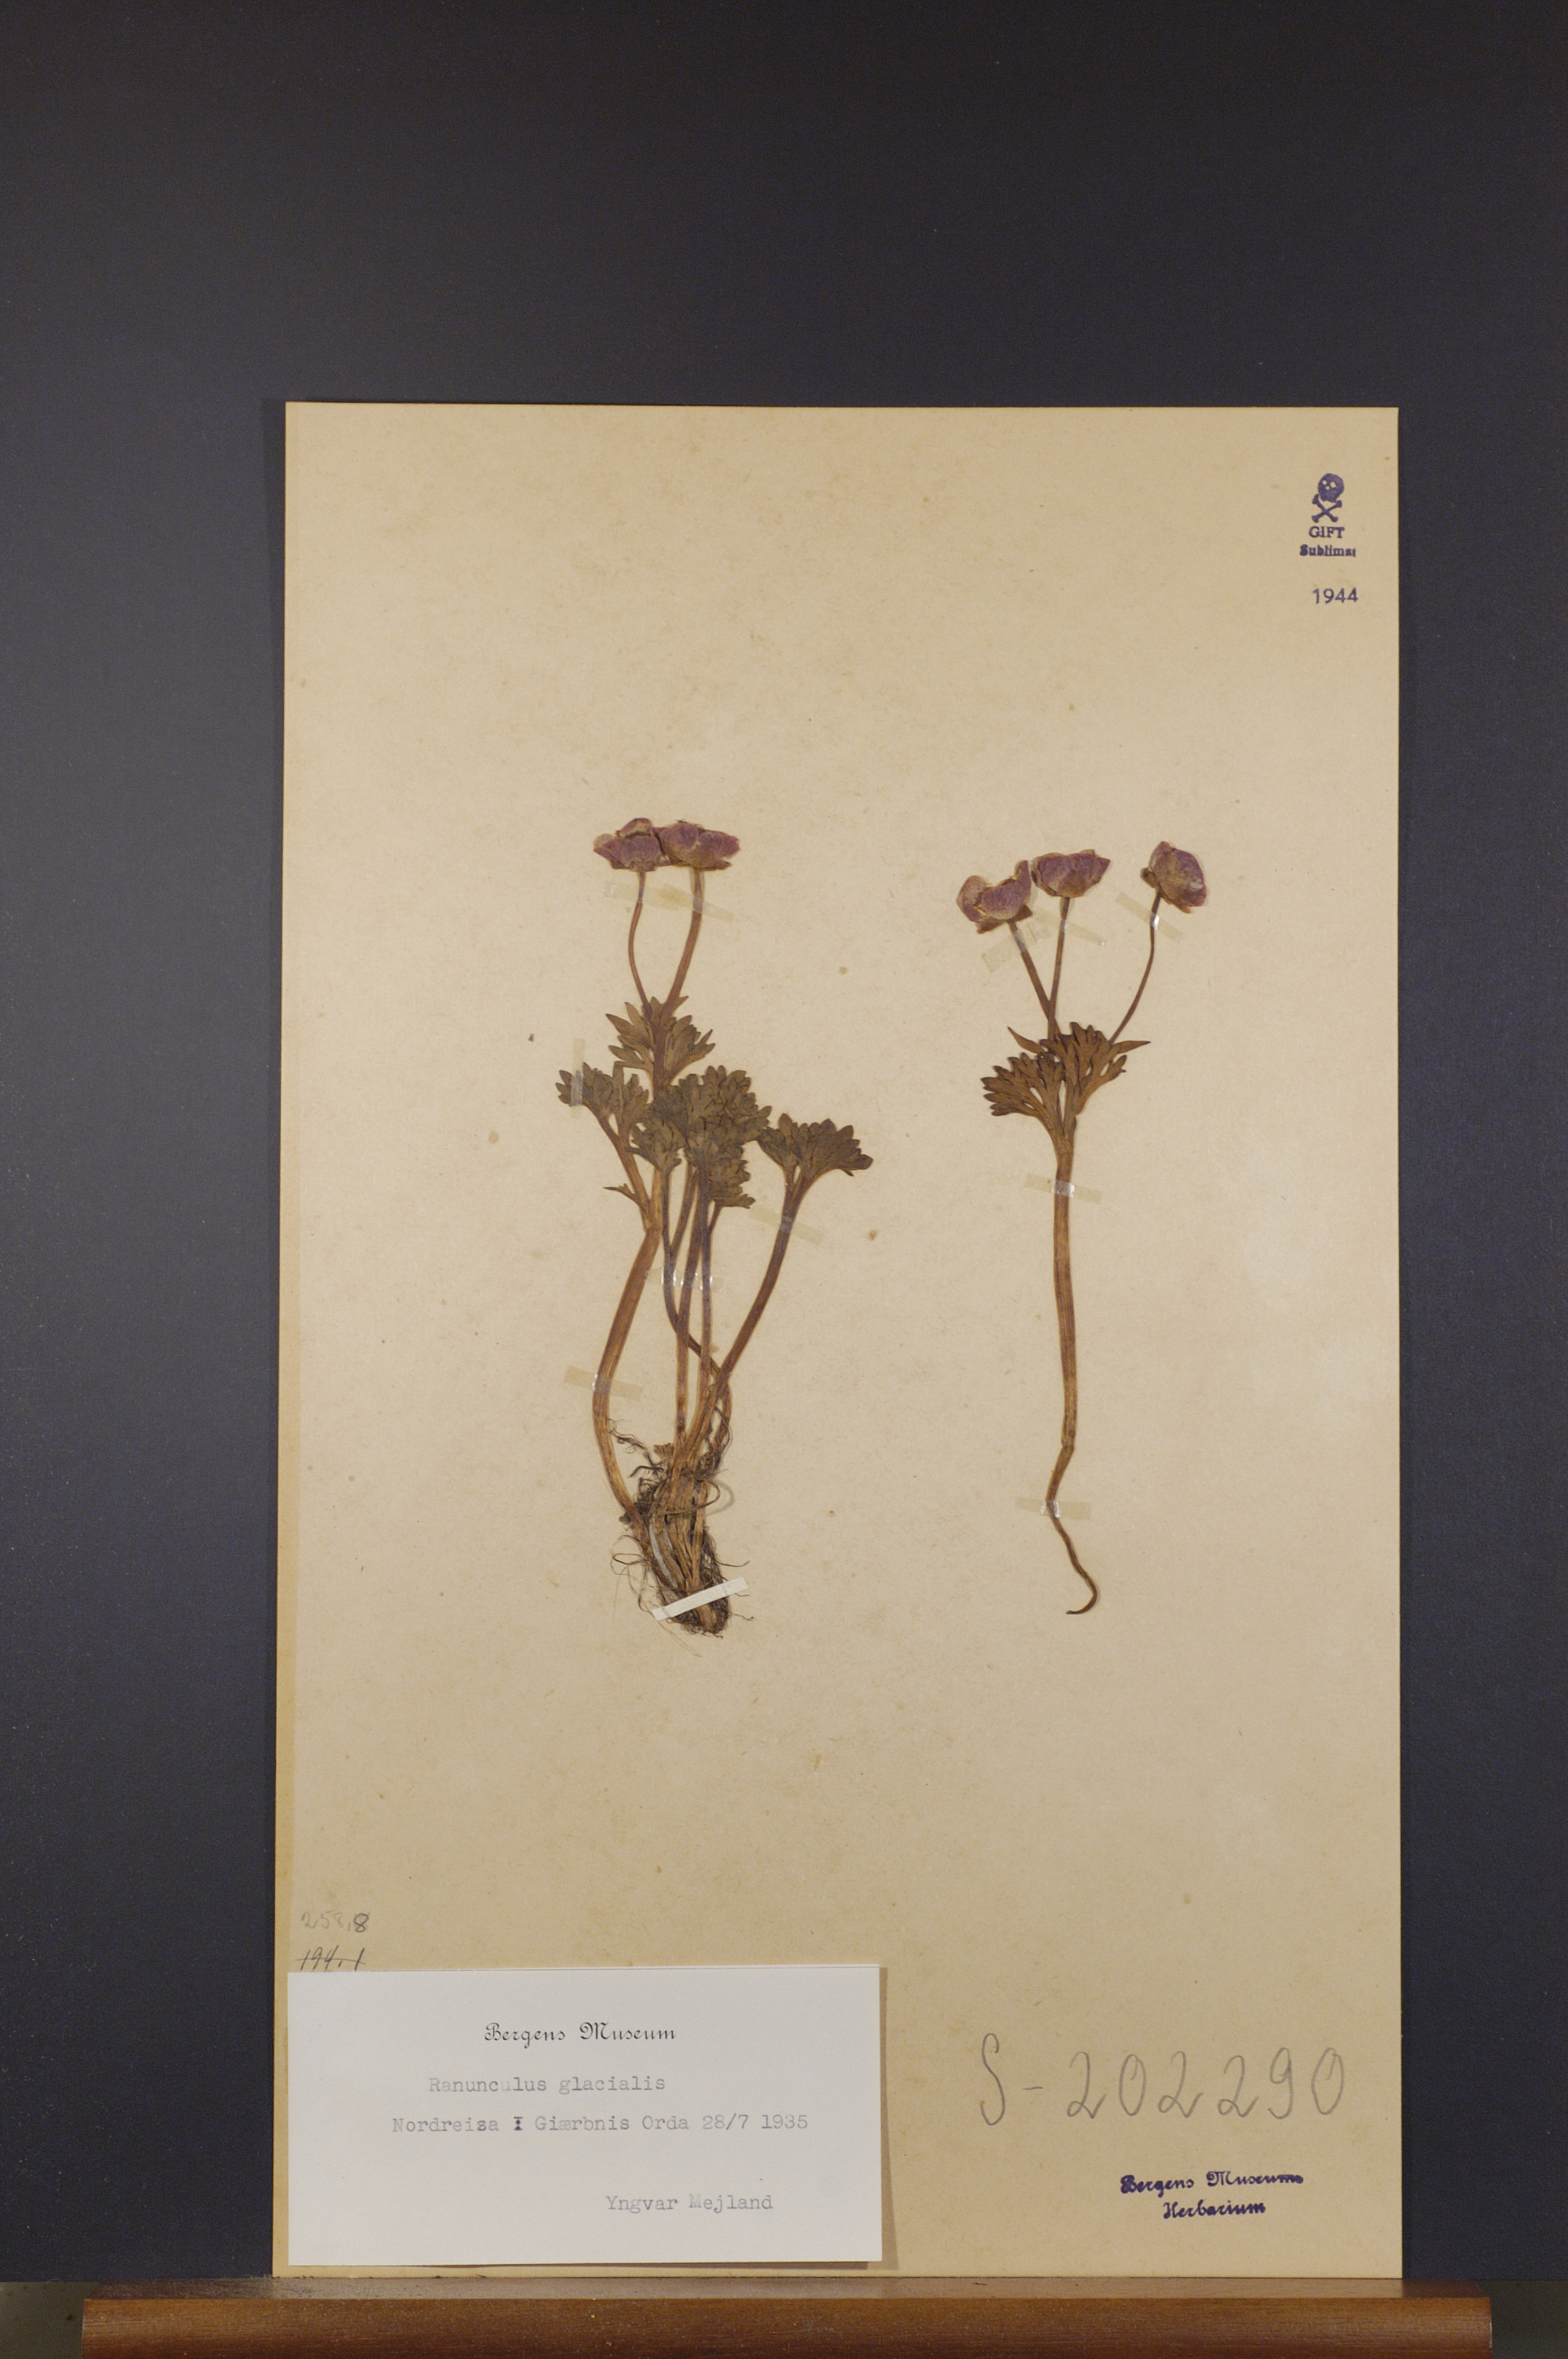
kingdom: Plantae
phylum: Tracheophyta
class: Magnoliopsida
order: Ranunculales
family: Ranunculaceae
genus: Ranunculus
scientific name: Ranunculus glacialis
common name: Glacier buttercup
